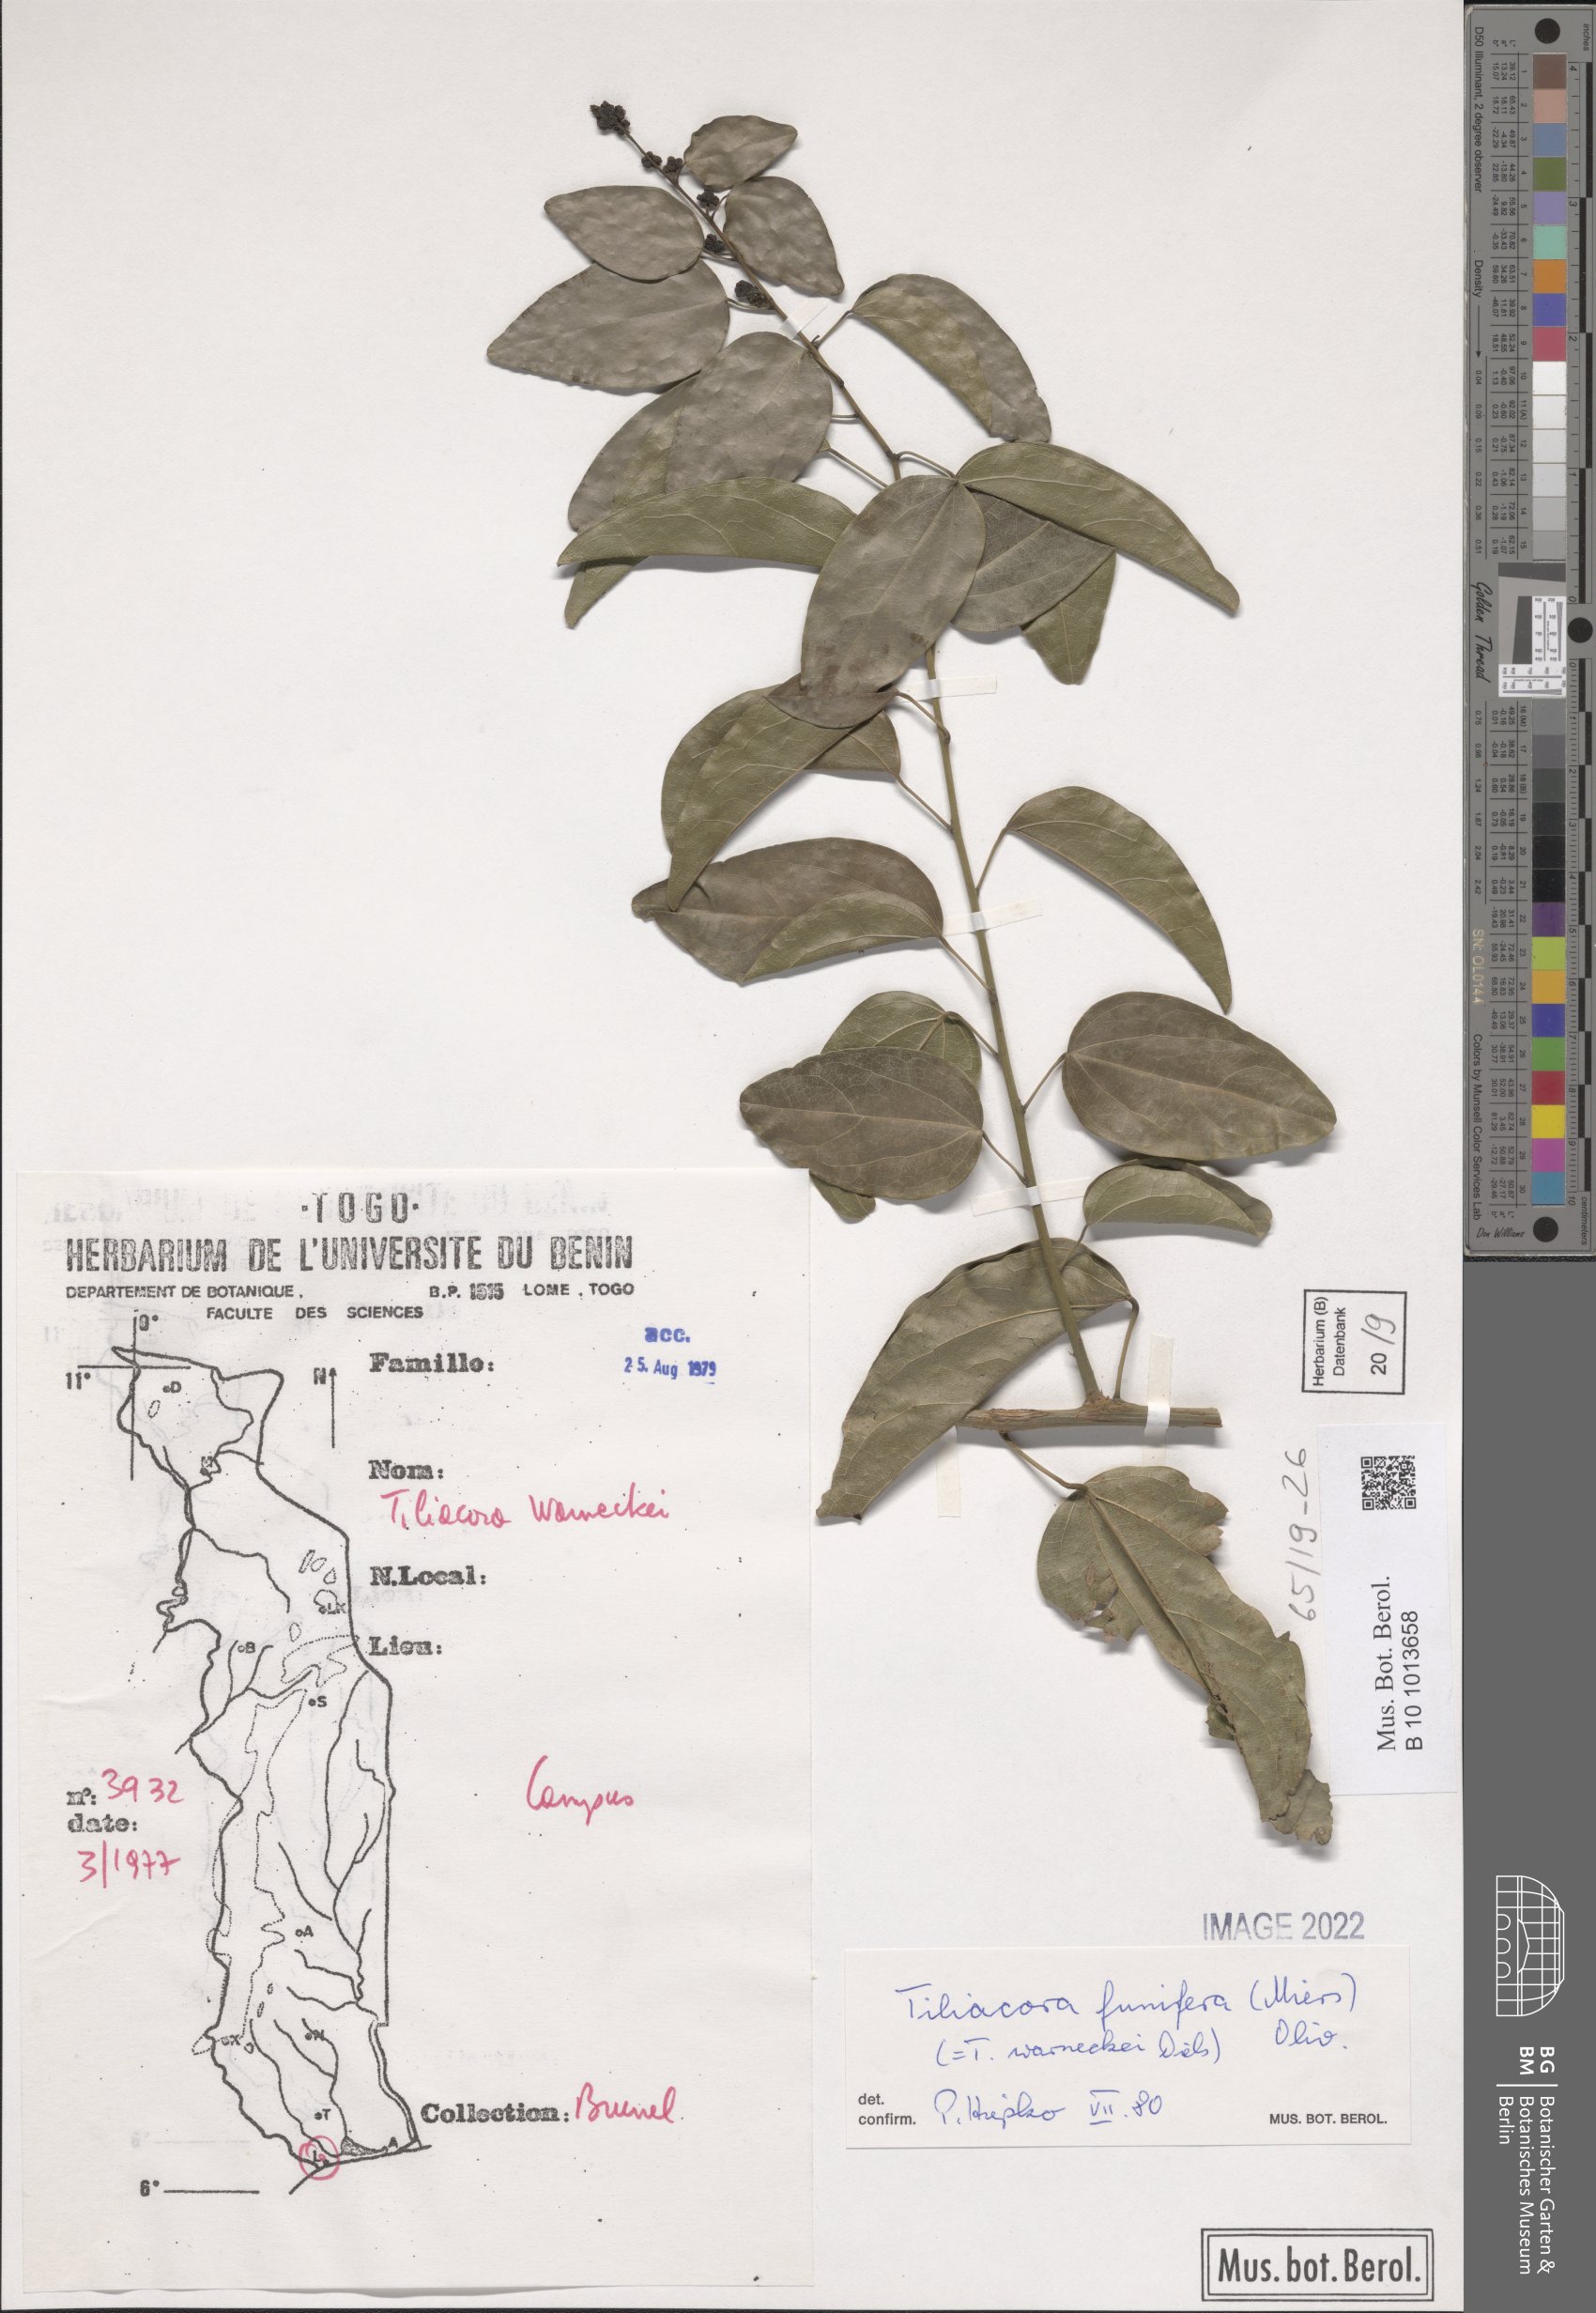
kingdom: Plantae
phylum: Tracheophyta
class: Magnoliopsida
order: Ranunculales
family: Menispermaceae
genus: Tiliacora
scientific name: Tiliacora funifera
